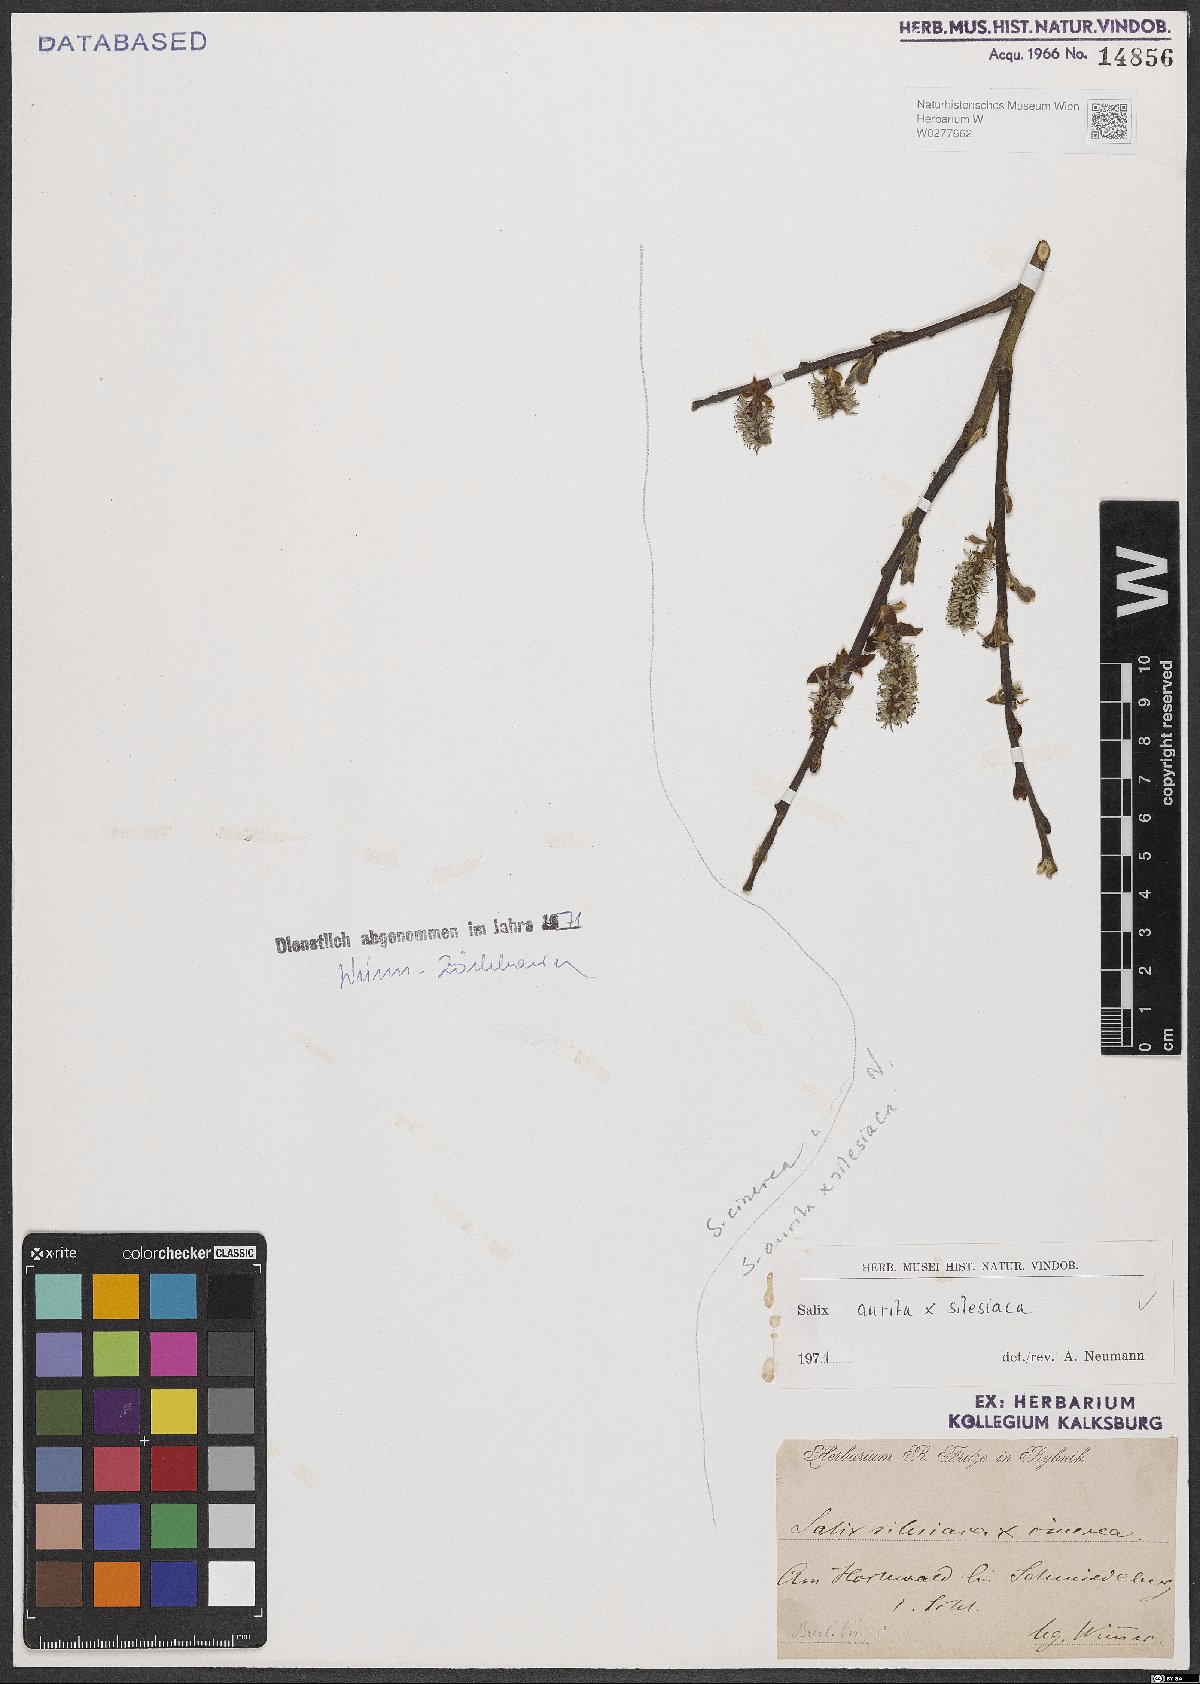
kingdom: Plantae
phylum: Tracheophyta
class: Magnoliopsida
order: Malpighiales
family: Salicaceae
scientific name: Salicaceae
